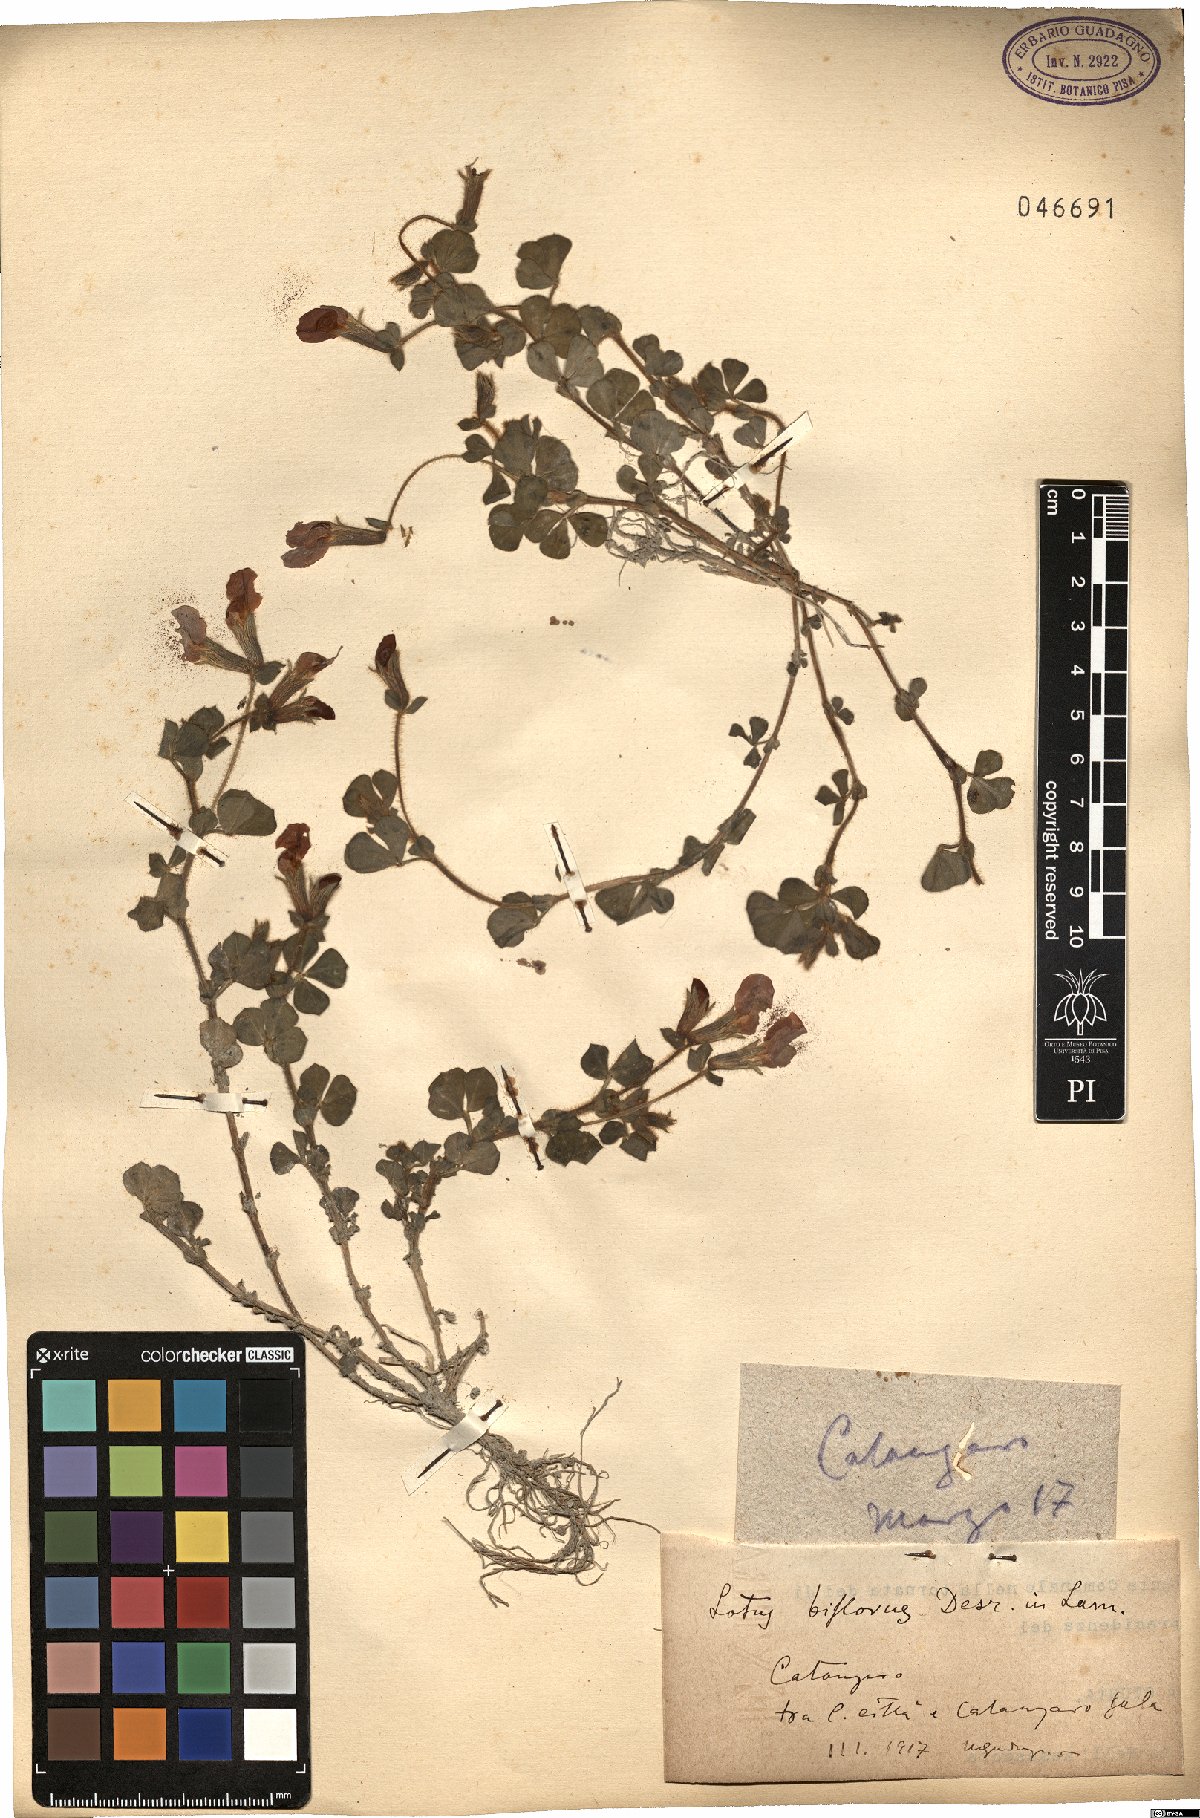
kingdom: Plantae
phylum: Tracheophyta
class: Magnoliopsida
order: Fabales
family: Fabaceae
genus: Lotus
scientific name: Lotus biflorus
